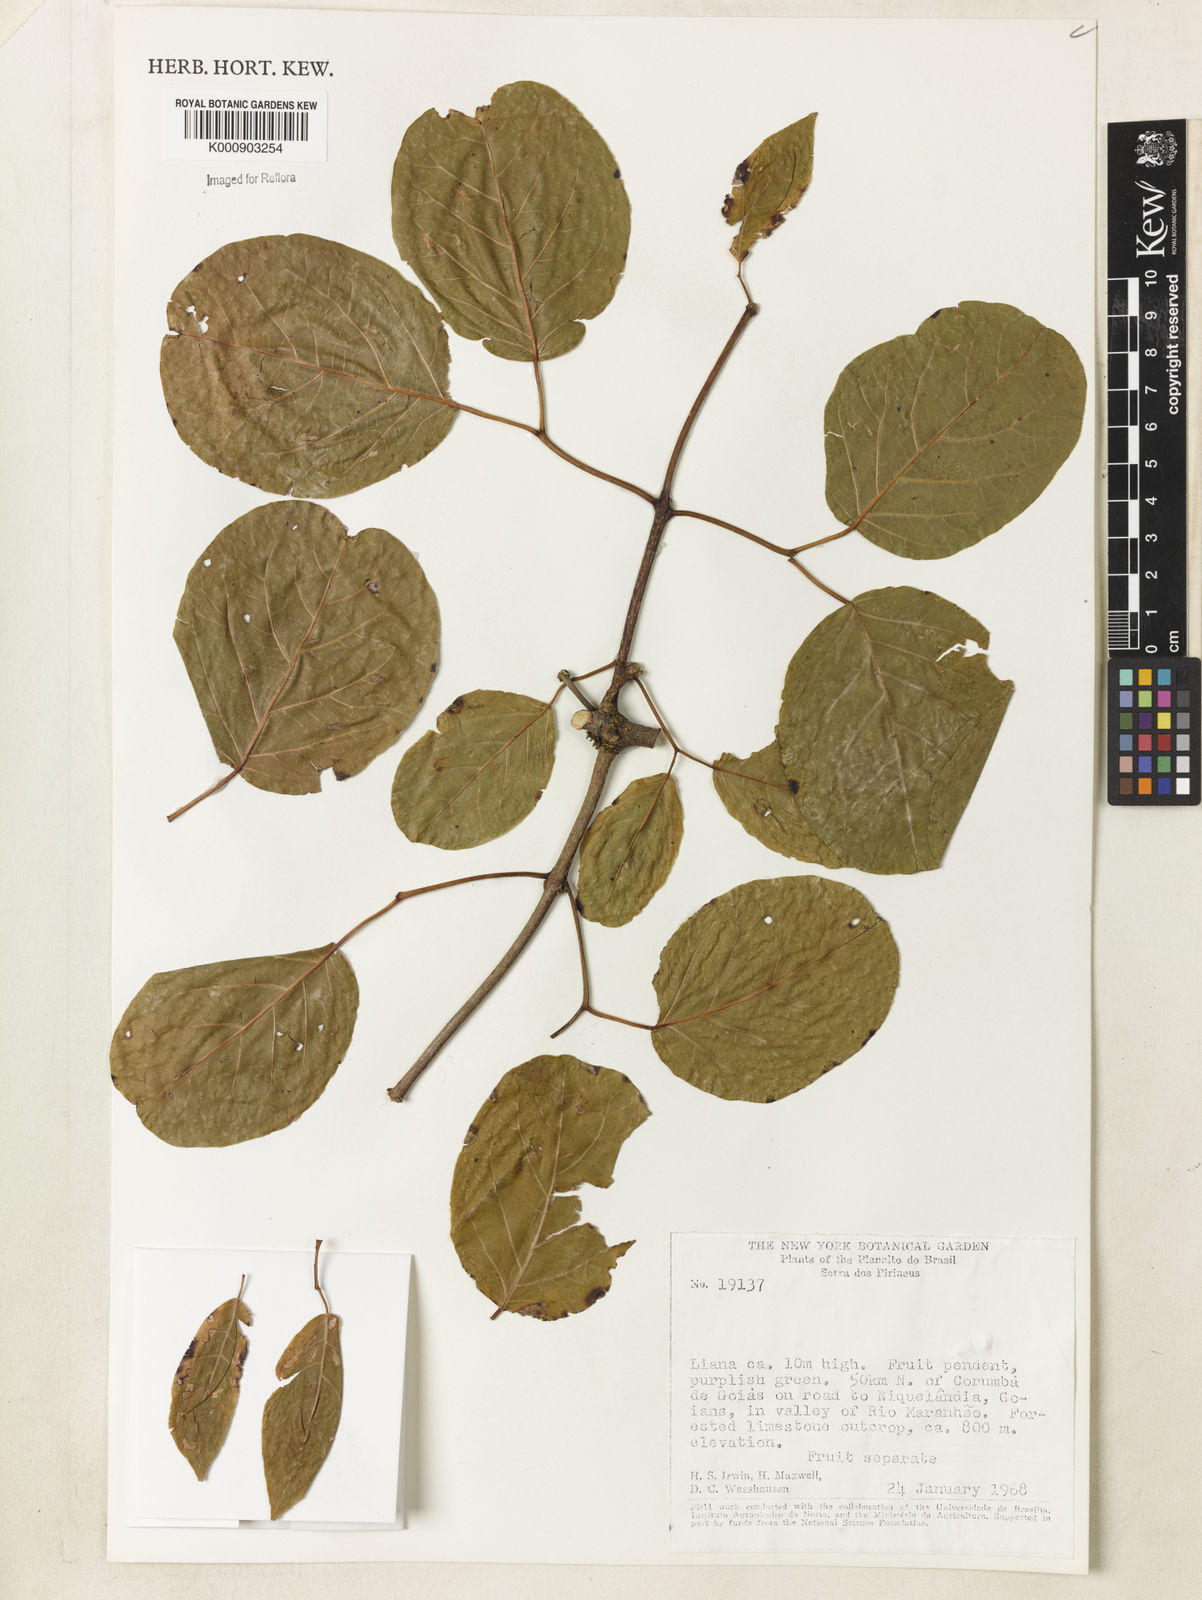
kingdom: Plantae
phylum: Tracheophyta
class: Magnoliopsida
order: Lamiales
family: Bignoniaceae
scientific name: Bignoniaceae
